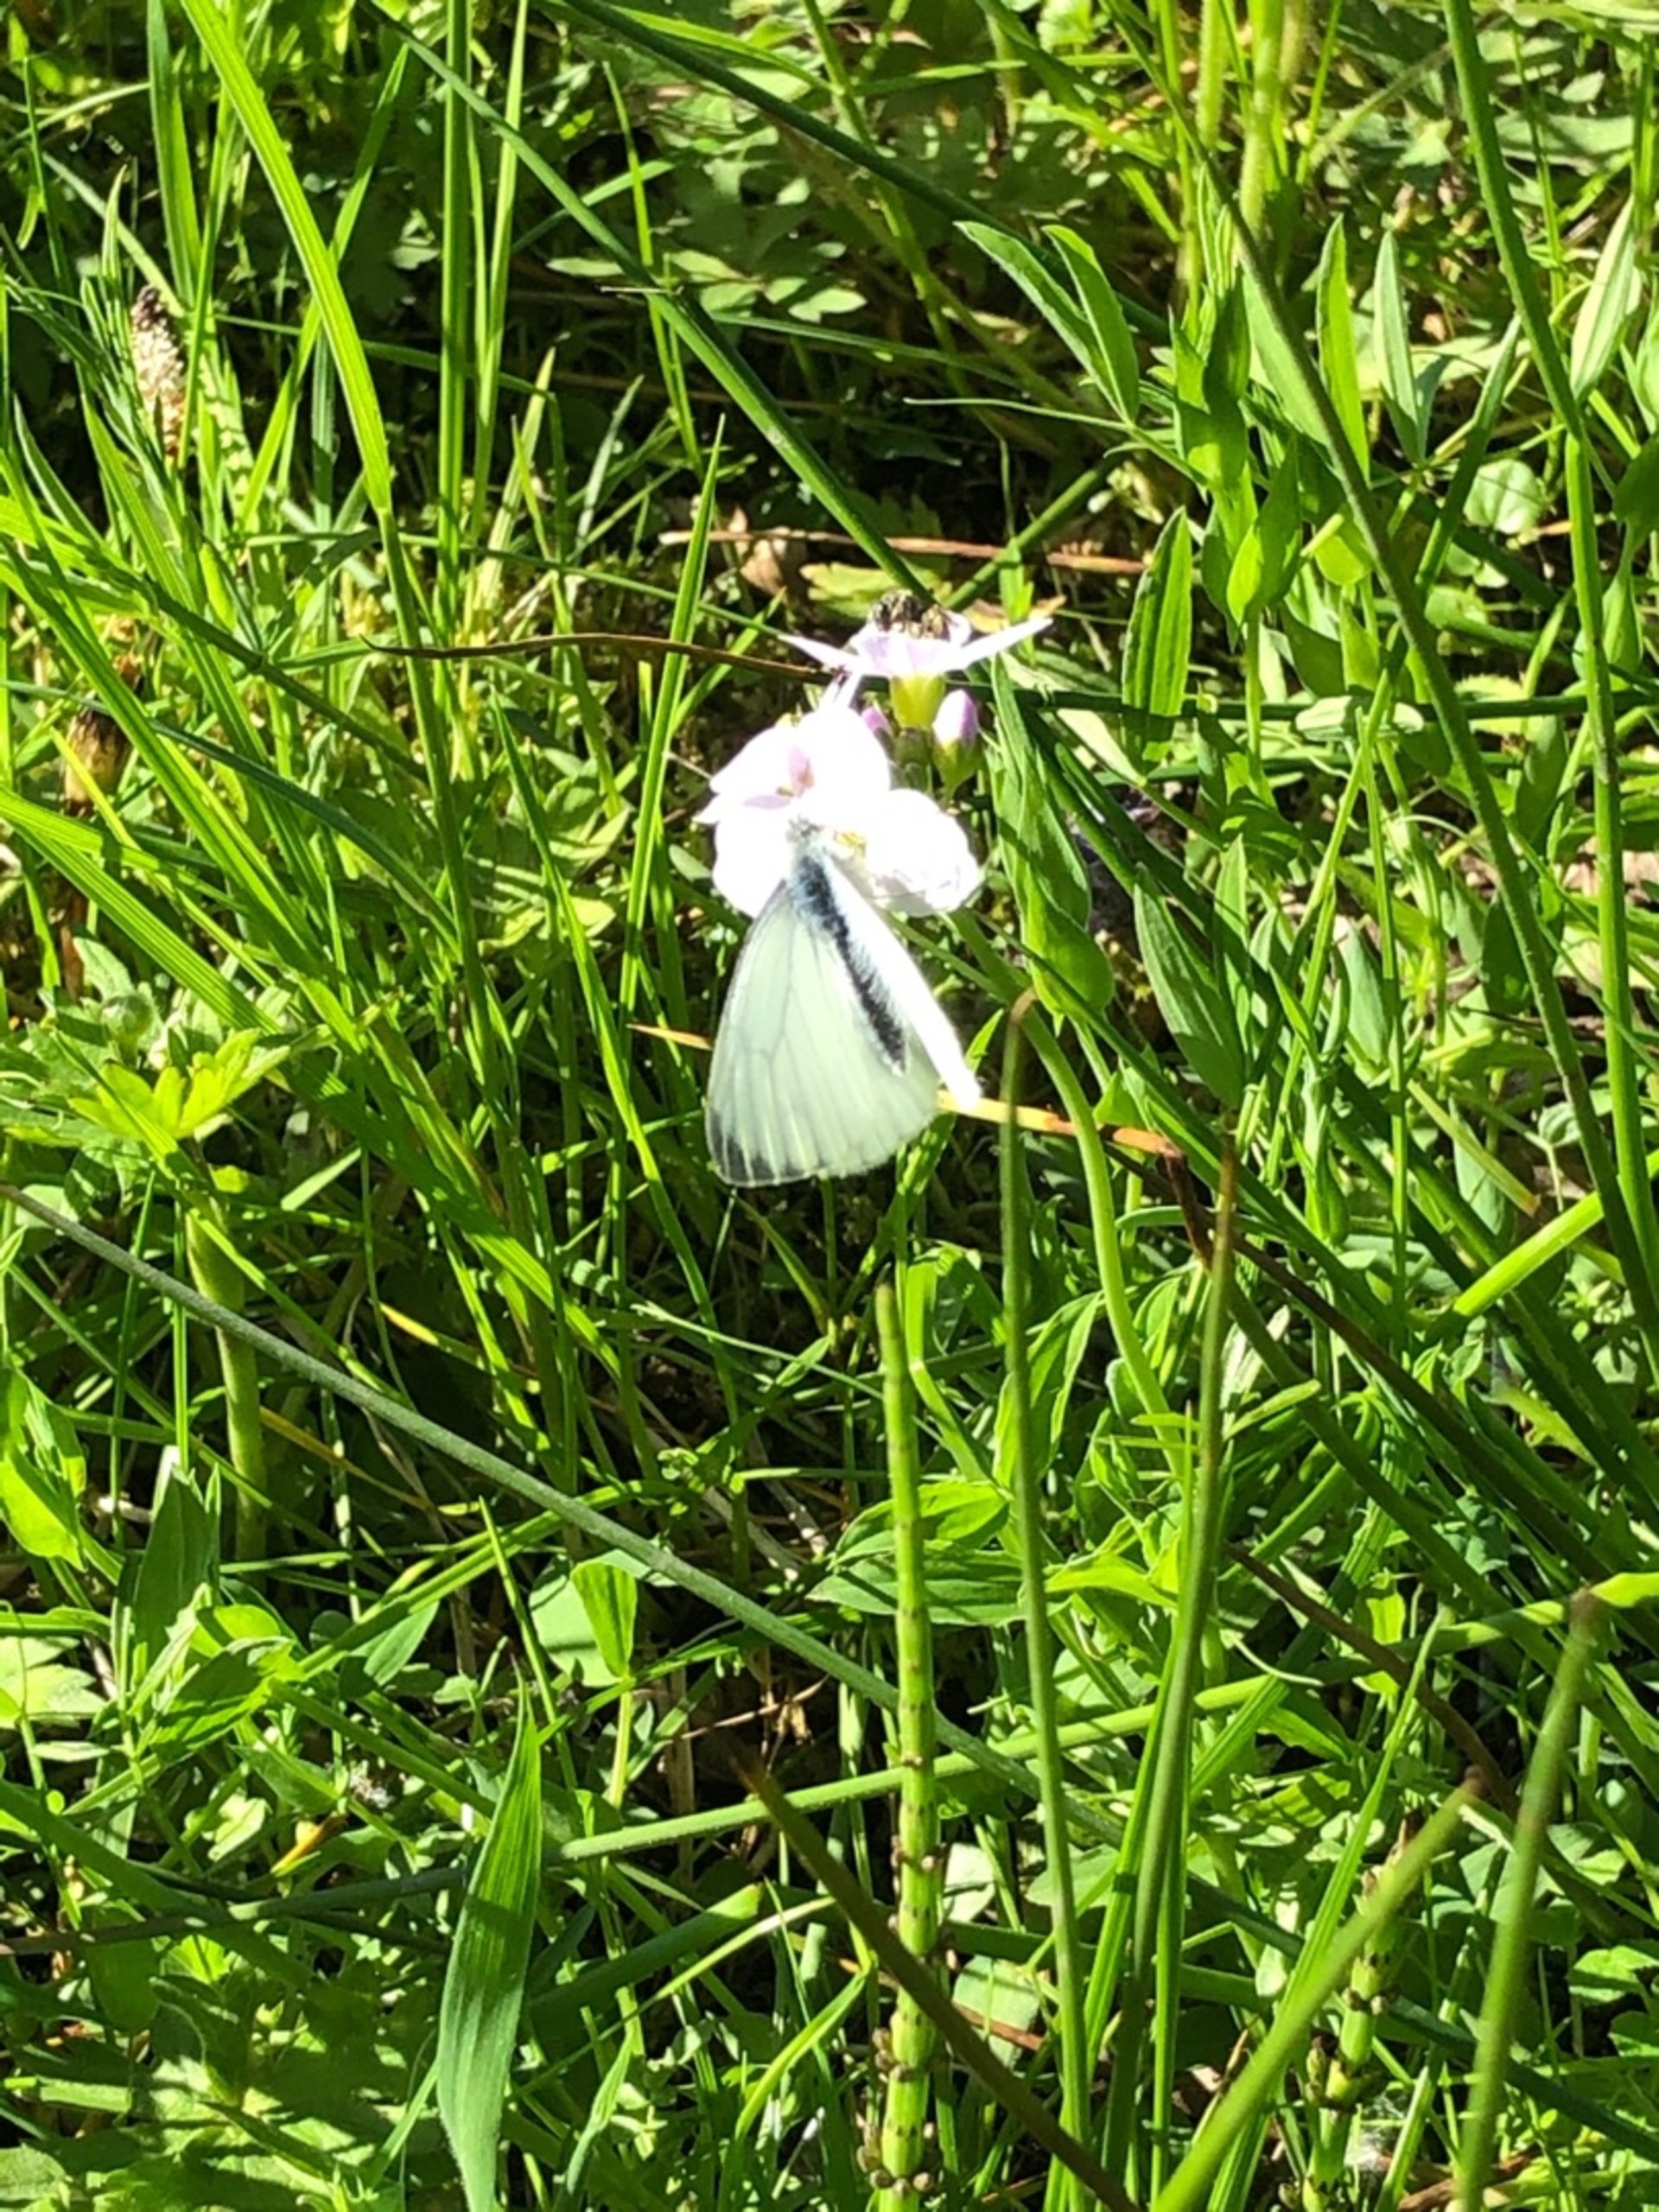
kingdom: Animalia
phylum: Arthropoda
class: Insecta
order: Lepidoptera
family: Pieridae
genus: Pieris
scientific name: Pieris napi
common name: Grønåret kålsommerfugl
